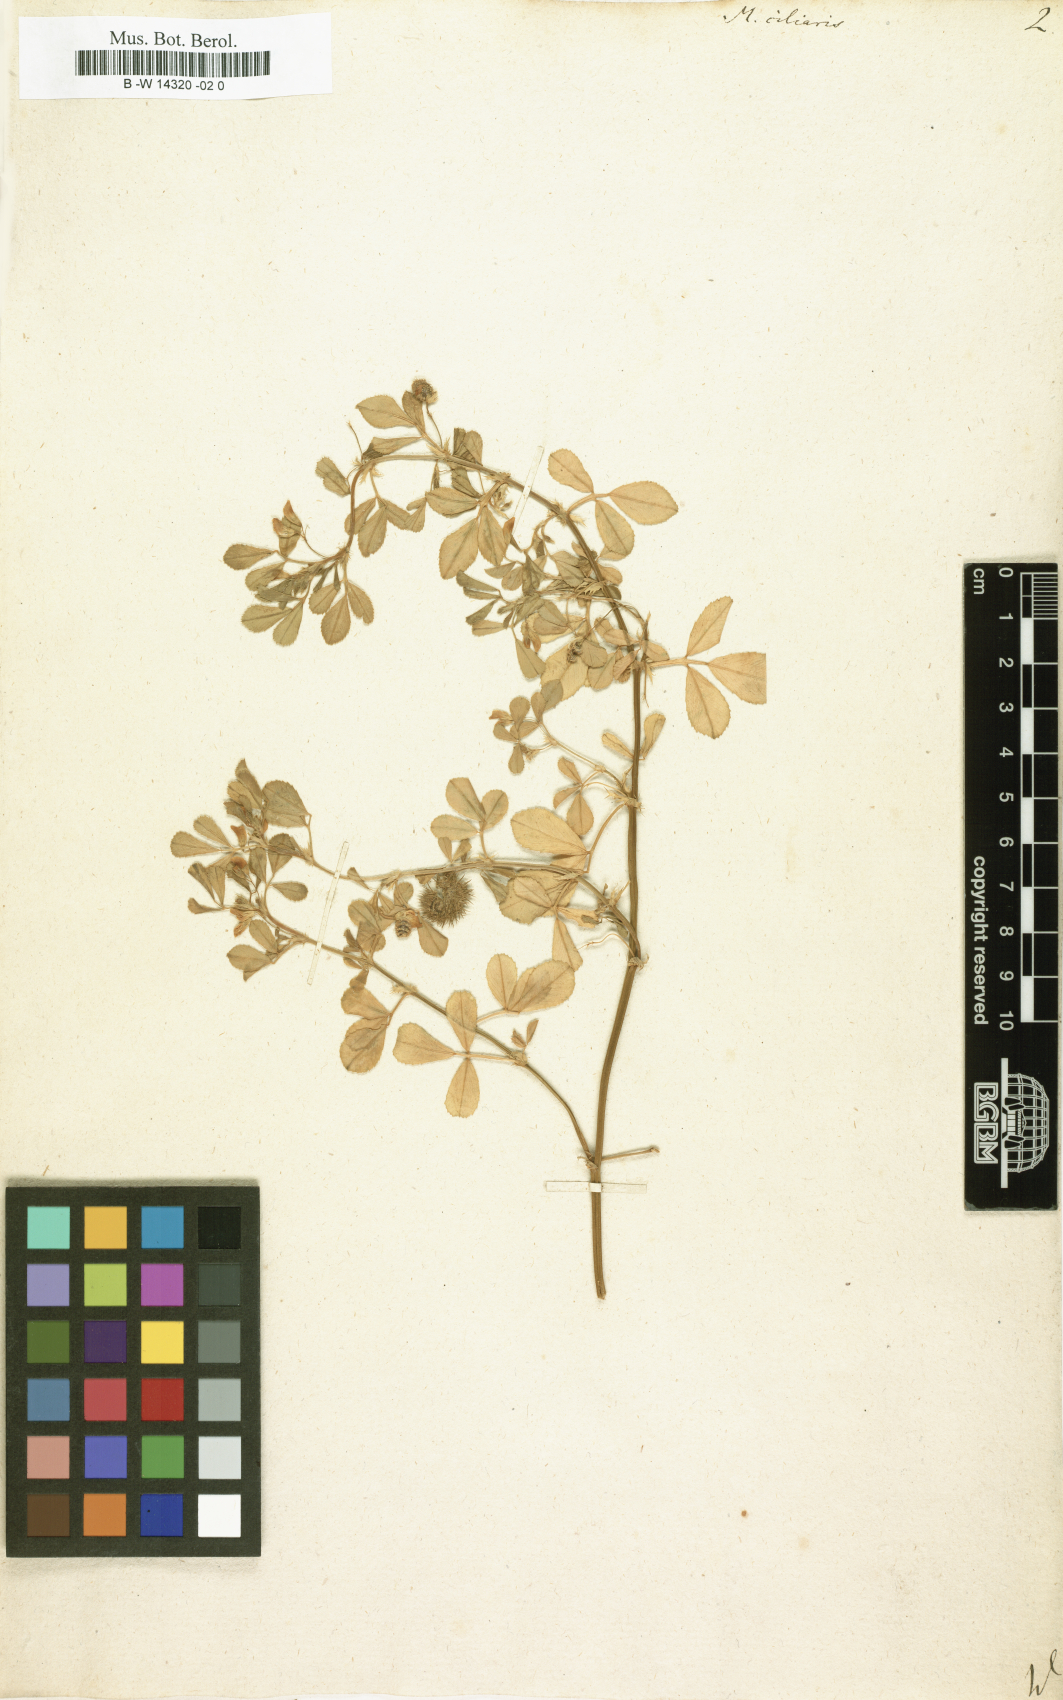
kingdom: Plantae
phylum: Tracheophyta
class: Magnoliopsida
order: Fabales
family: Fabaceae
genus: Medicago
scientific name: Medicago ciliaris
